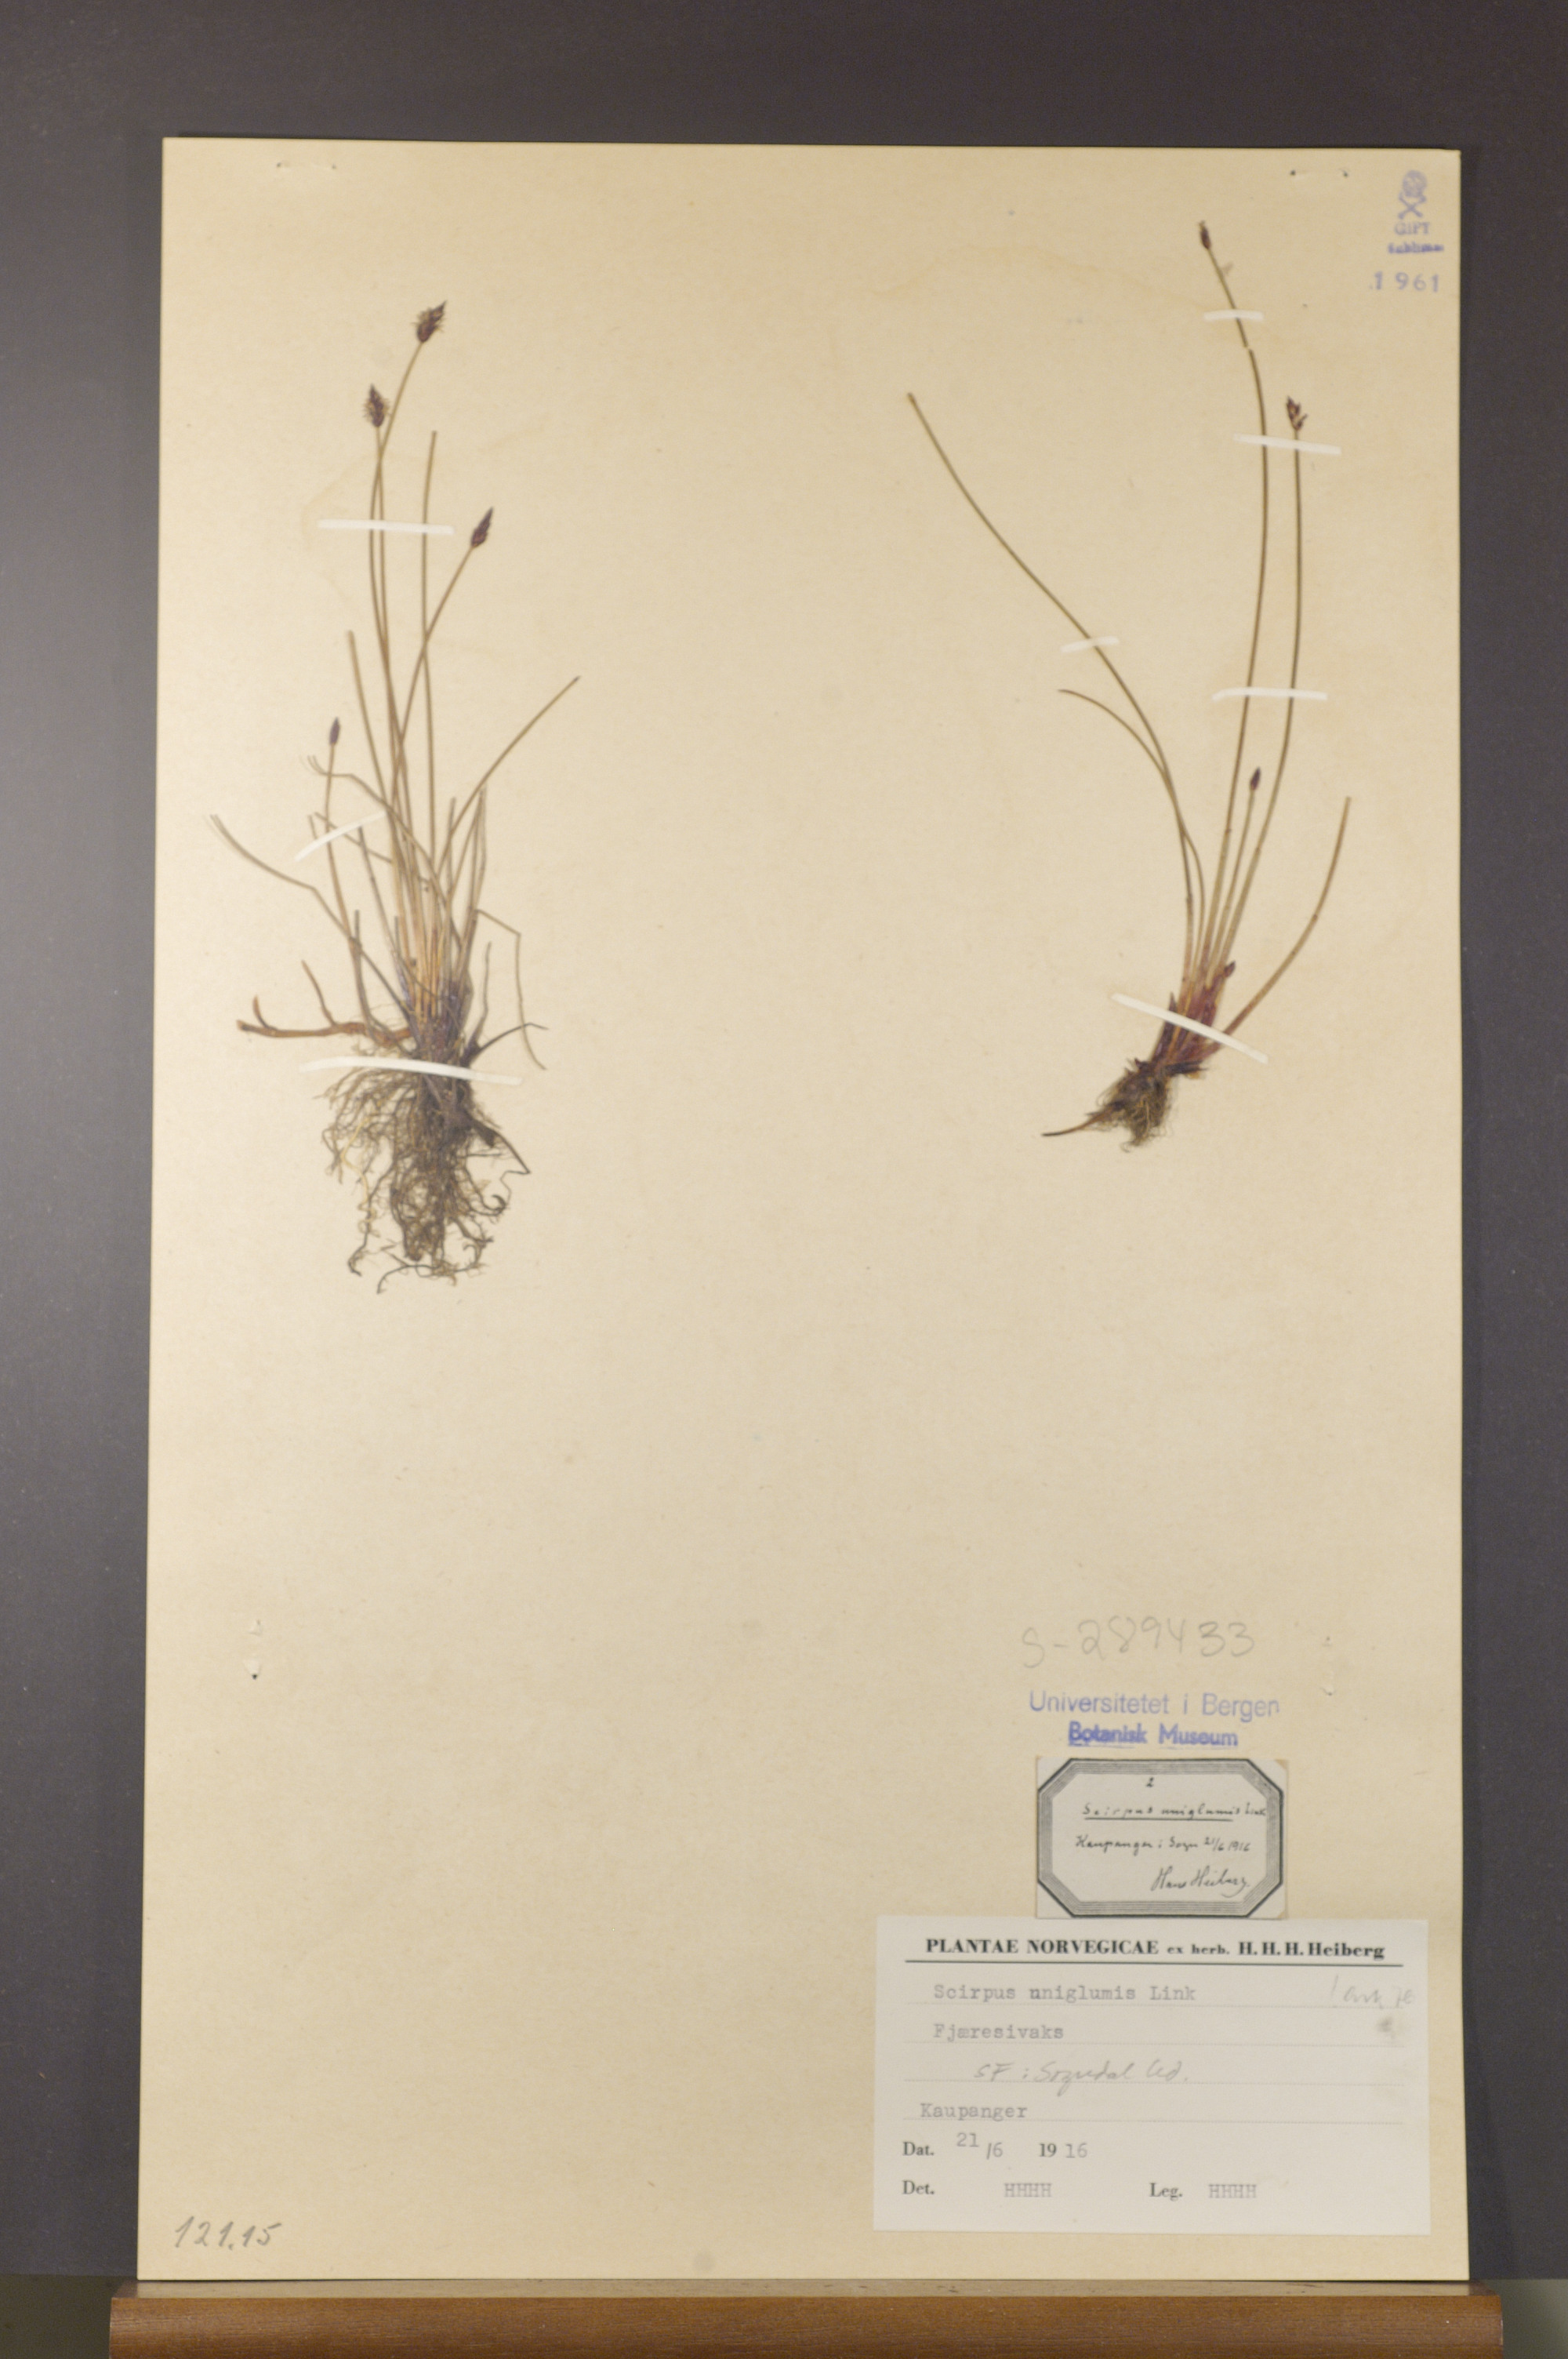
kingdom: Plantae
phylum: Tracheophyta
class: Liliopsida
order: Poales
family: Cyperaceae
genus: Eleocharis
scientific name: Eleocharis uniglumis
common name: Slender spike-rush
